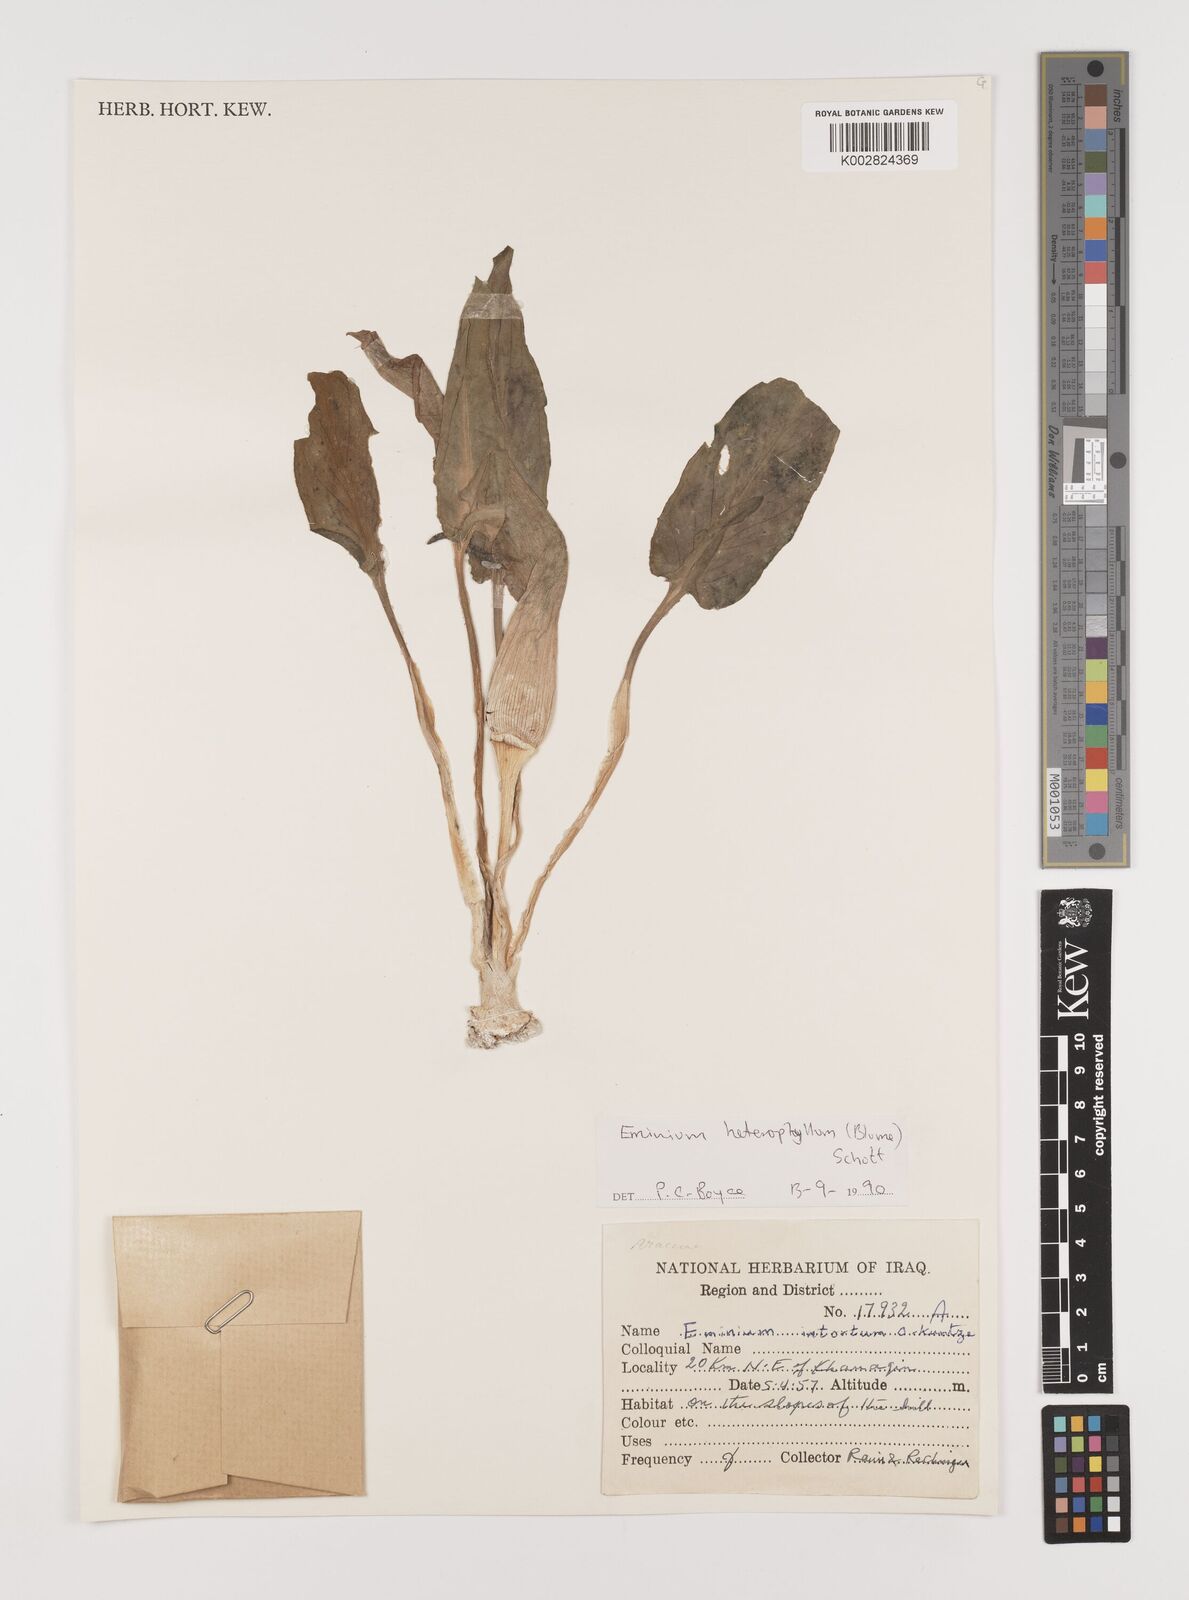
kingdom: Plantae
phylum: Tracheophyta
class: Liliopsida
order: Alismatales
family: Araceae
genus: Eminium
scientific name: Eminium rauwolffii
